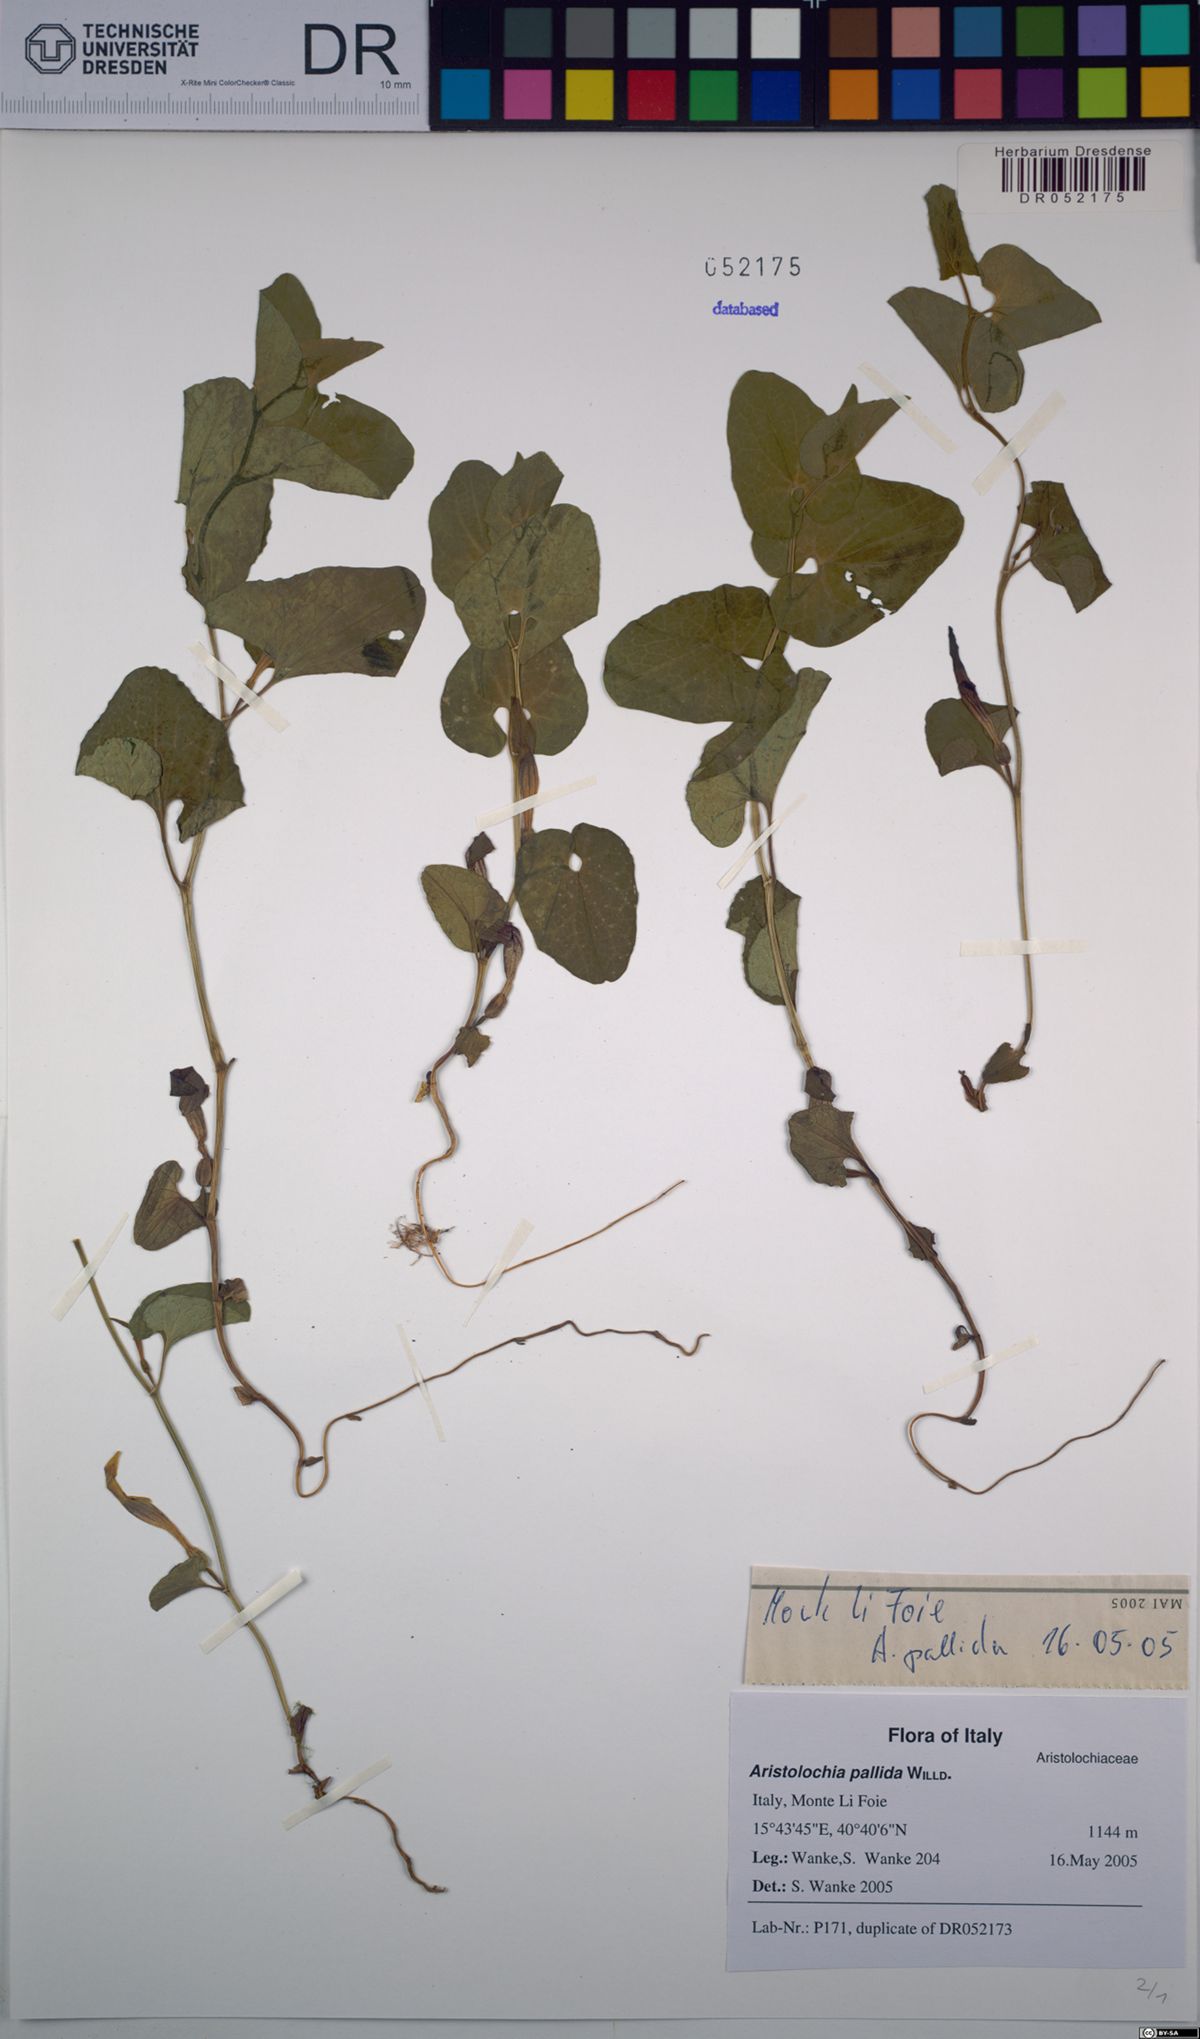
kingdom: Plantae
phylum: Tracheophyta
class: Magnoliopsida
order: Piperales
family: Aristolochiaceae
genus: Aristolochia
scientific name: Aristolochia pallida
